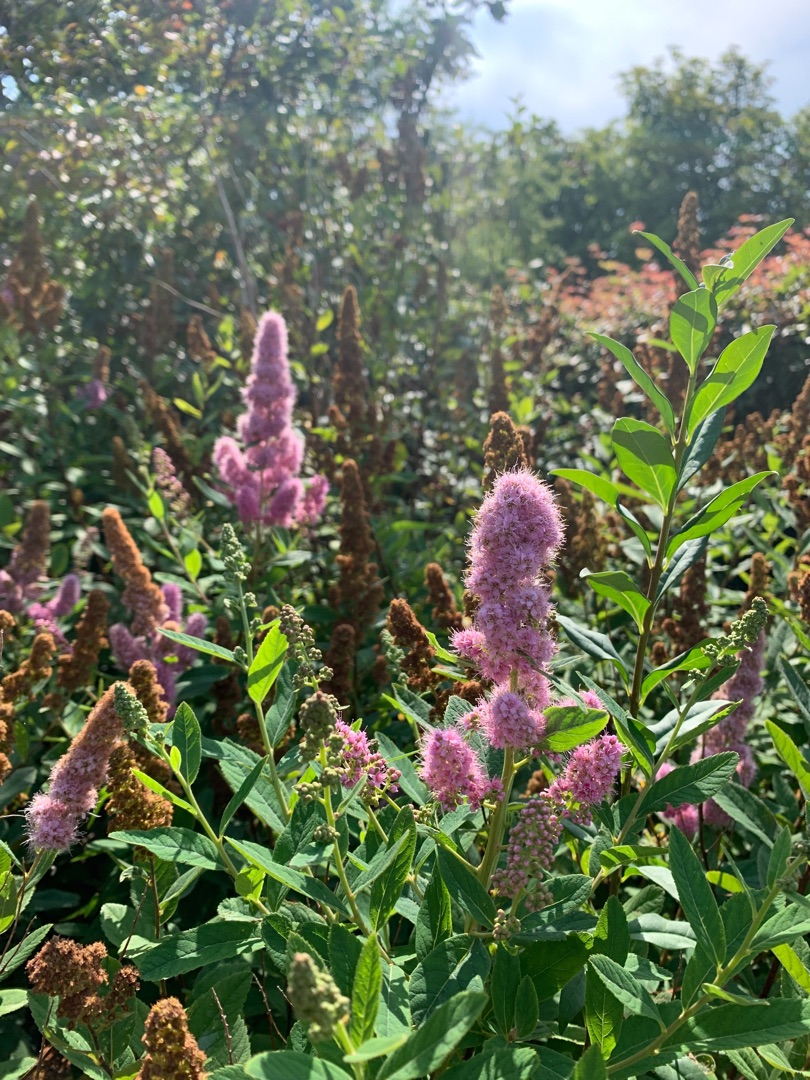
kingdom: Plantae
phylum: Tracheophyta
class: Magnoliopsida
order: Rosales
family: Rosaceae
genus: Spiraea
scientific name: Spiraea
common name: Spiræaslægten
